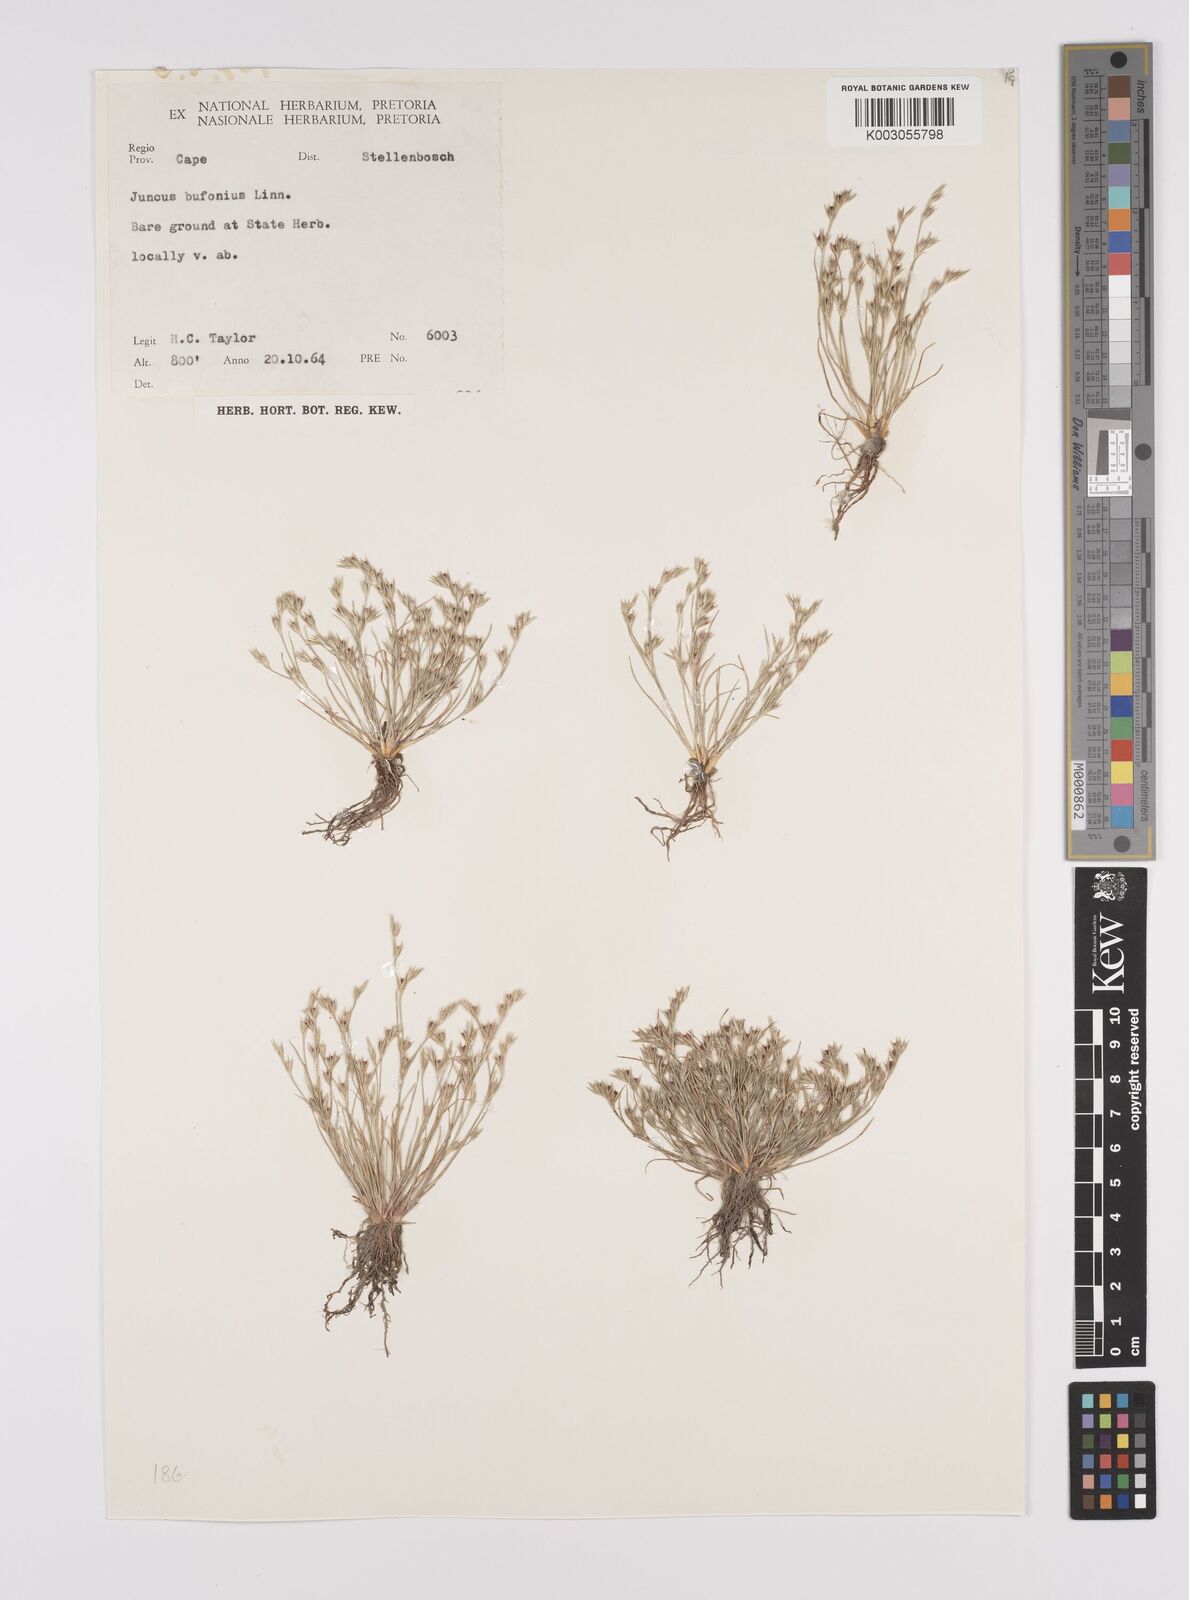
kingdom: Plantae
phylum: Tracheophyta
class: Liliopsida
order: Poales
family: Juncaceae
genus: Juncus
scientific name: Juncus bufonius
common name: Toad rush
